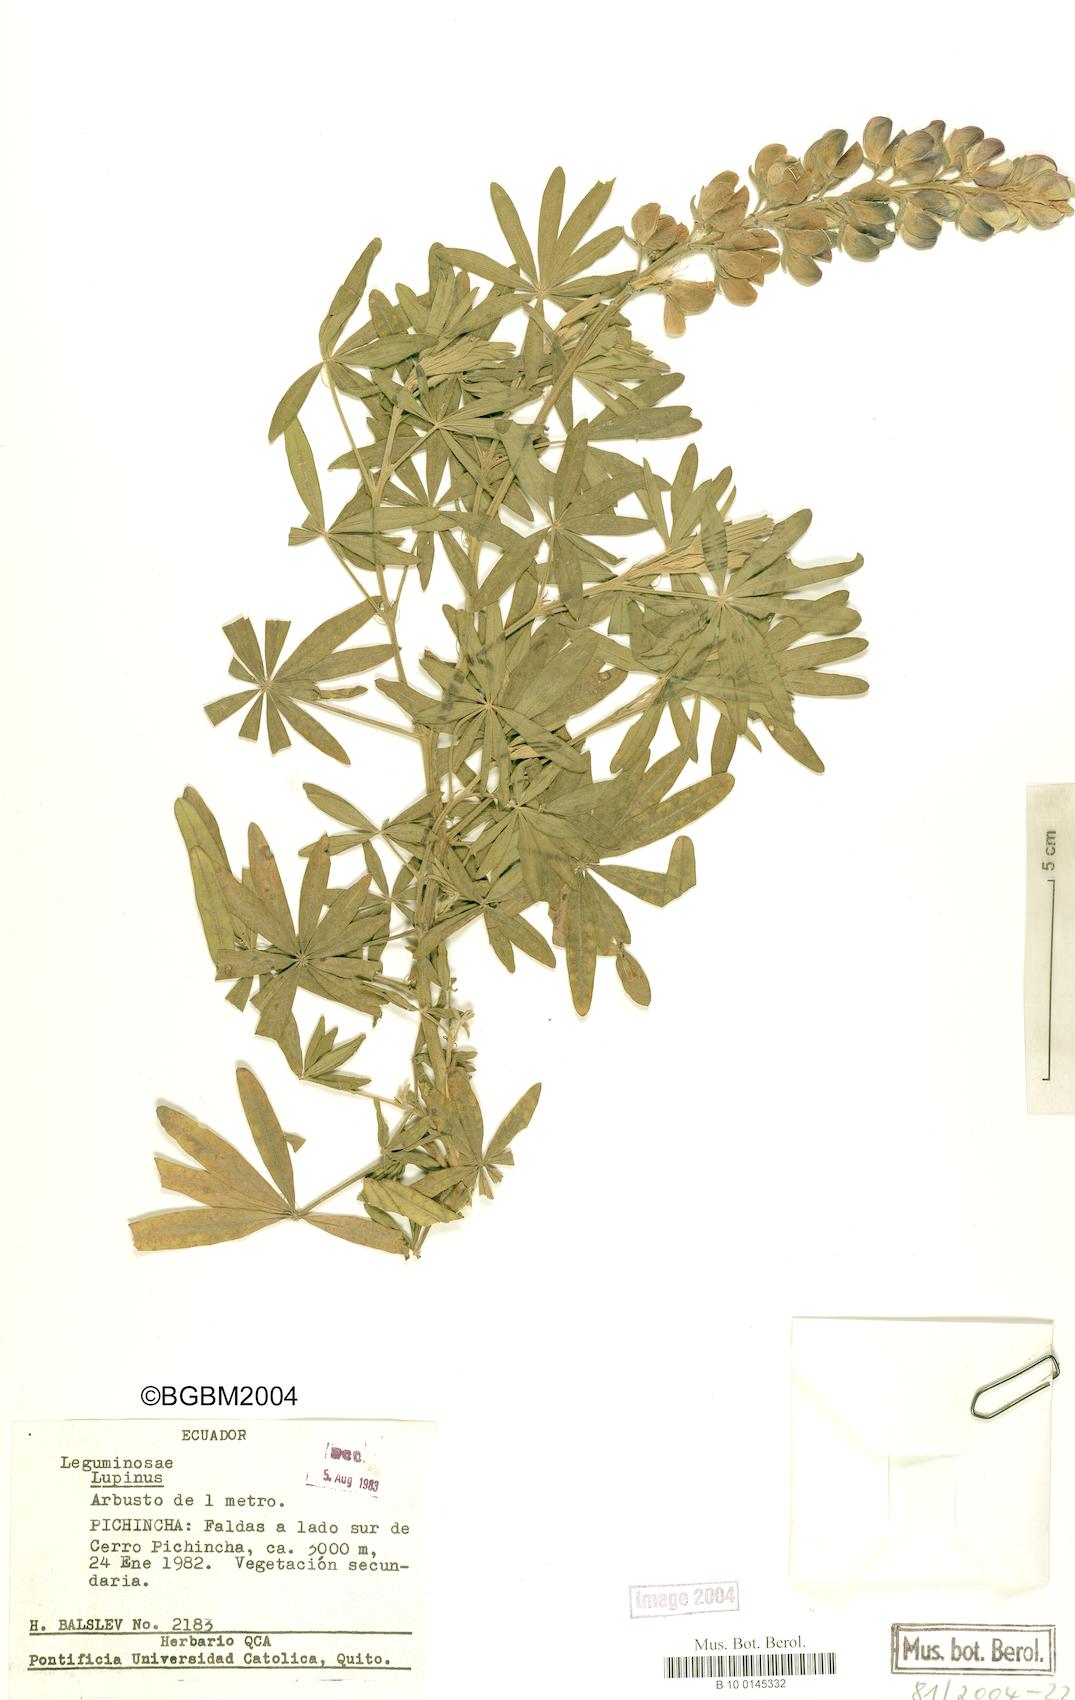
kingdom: Plantae
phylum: Tracheophyta
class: Magnoliopsida
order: Fabales
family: Fabaceae
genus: Lupinus
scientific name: Lupinus
